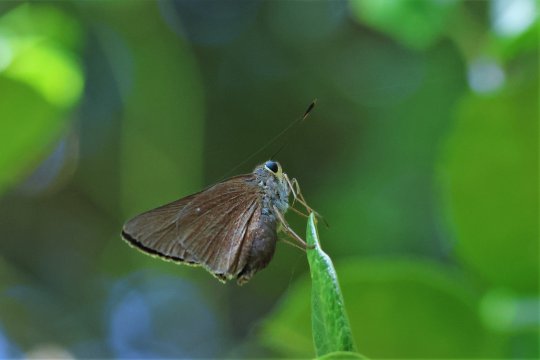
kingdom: Animalia
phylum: Arthropoda
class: Insecta
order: Lepidoptera
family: Hesperiidae
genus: Asbolis
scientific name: Asbolis capucinus
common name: Monk Skipper
